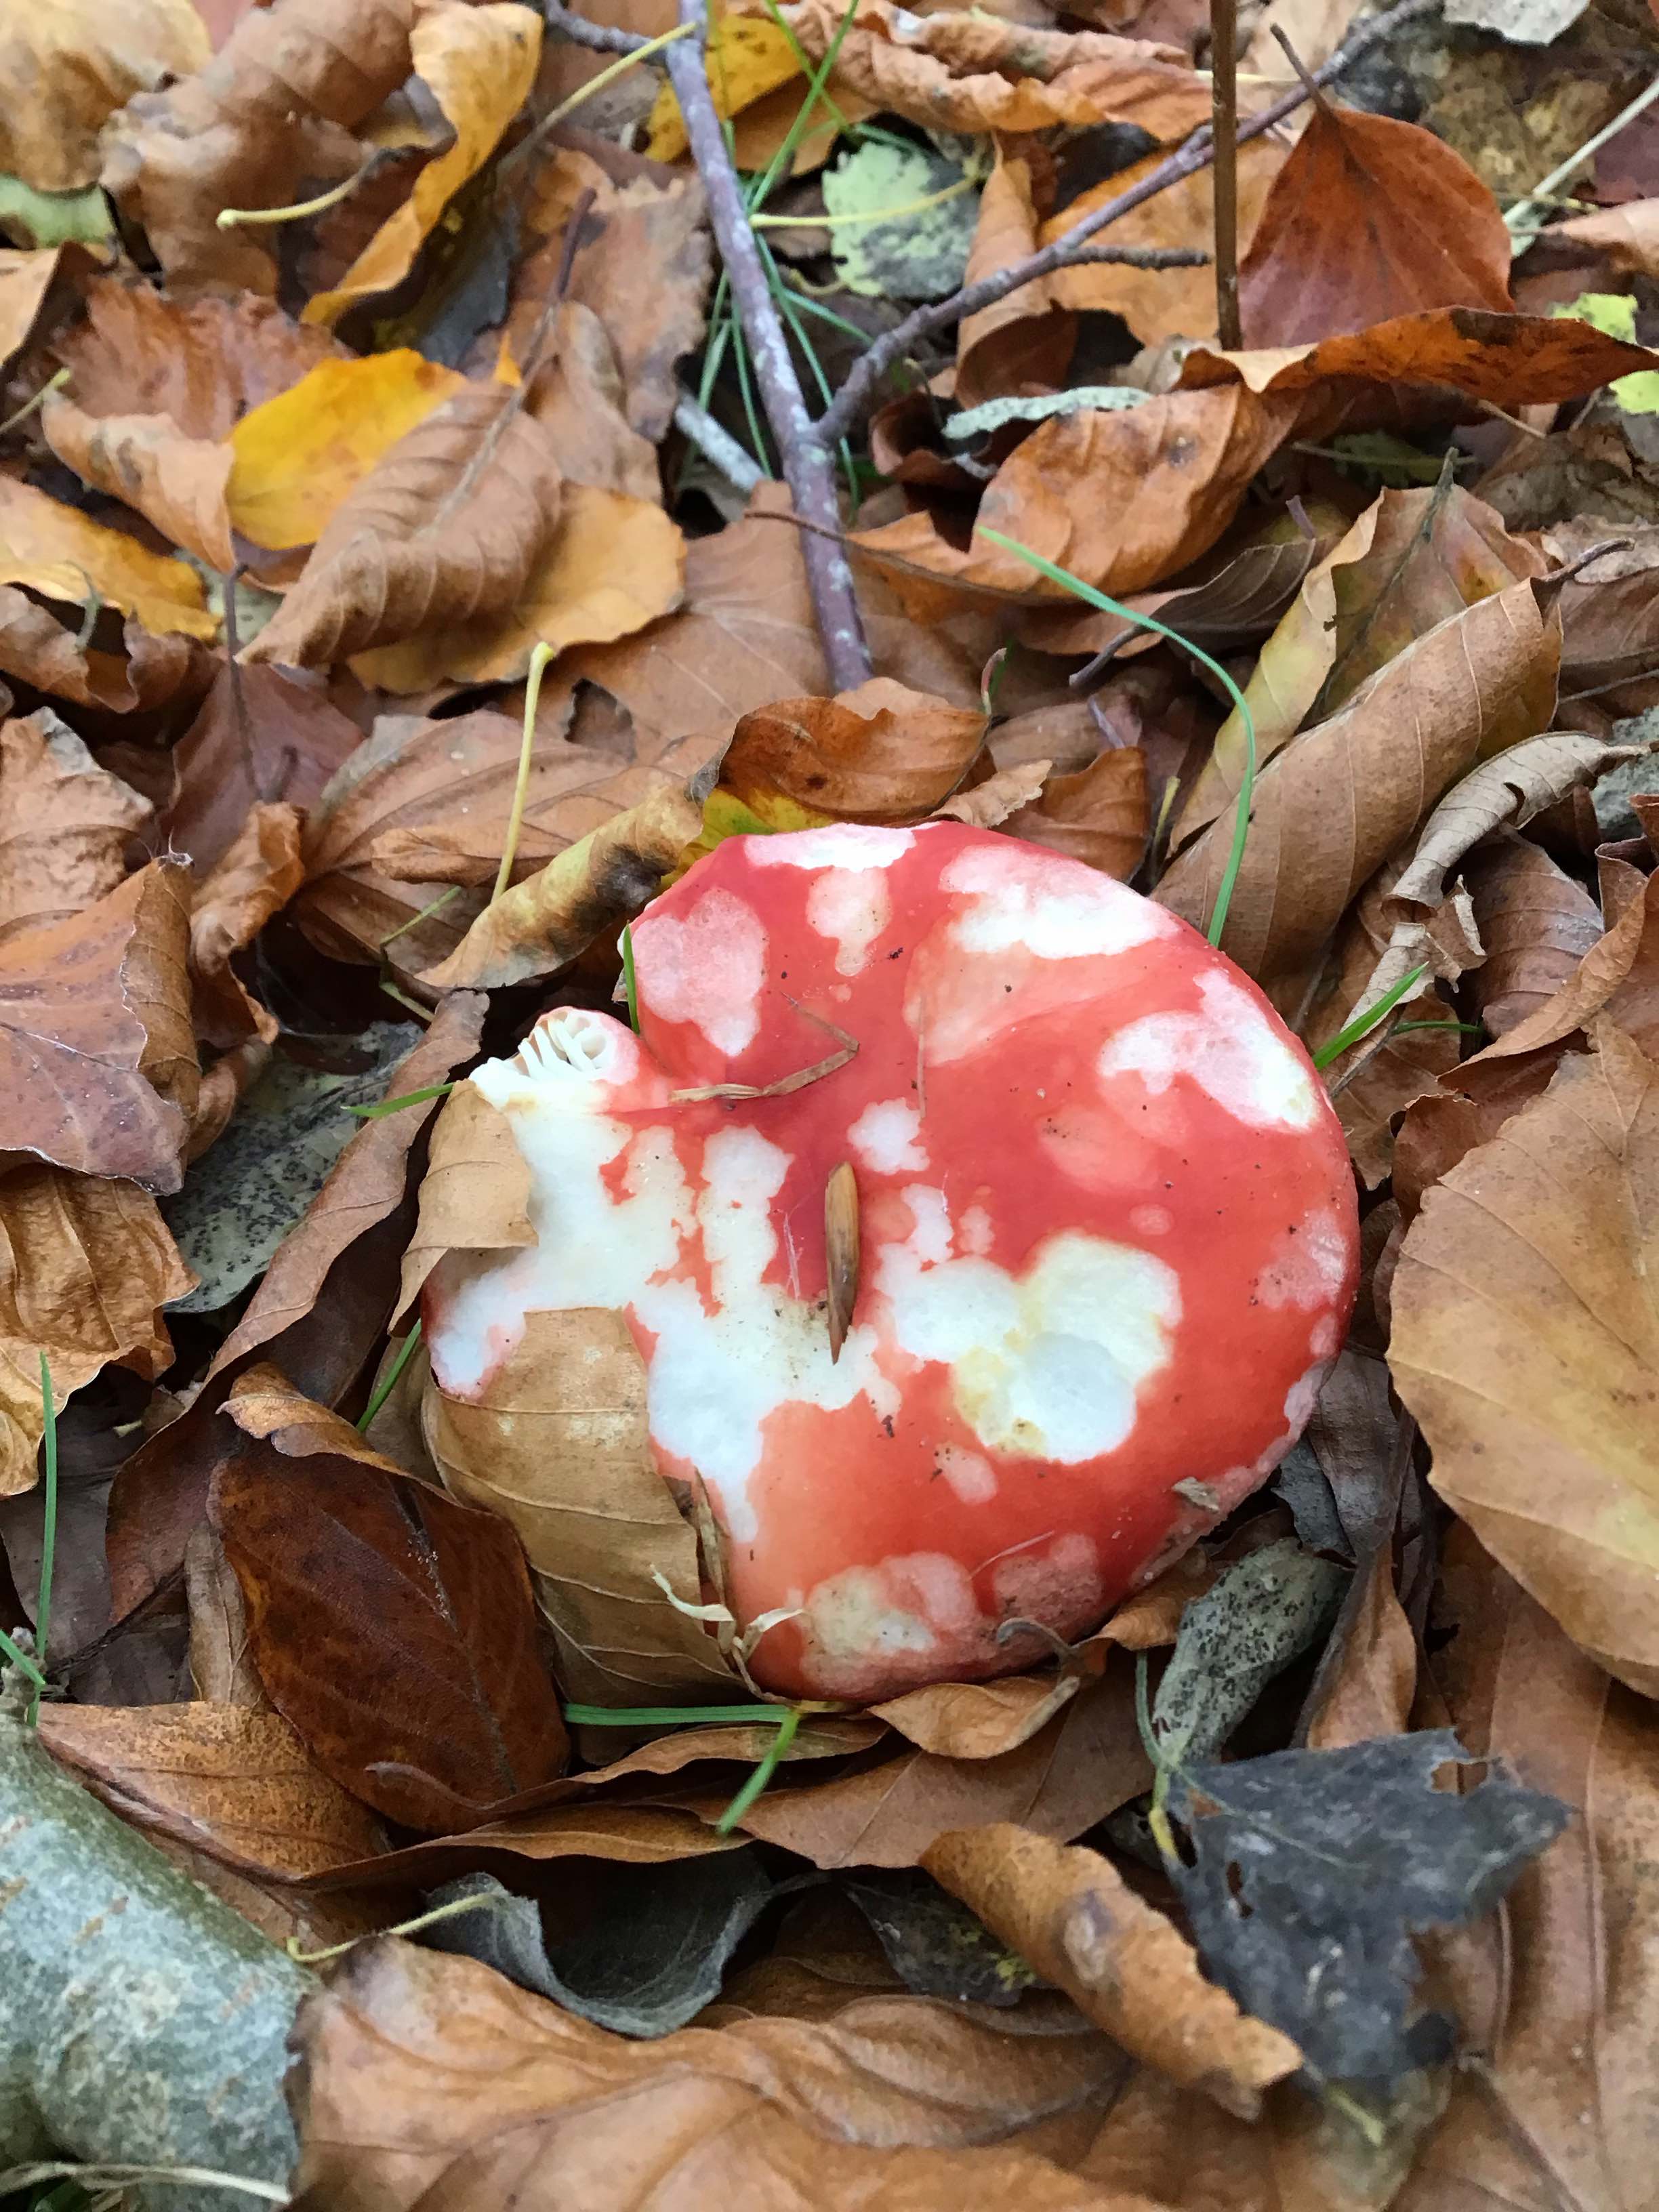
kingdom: Fungi
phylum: Basidiomycota
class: Agaricomycetes
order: Russulales
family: Russulaceae
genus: Russula
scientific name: Russula
